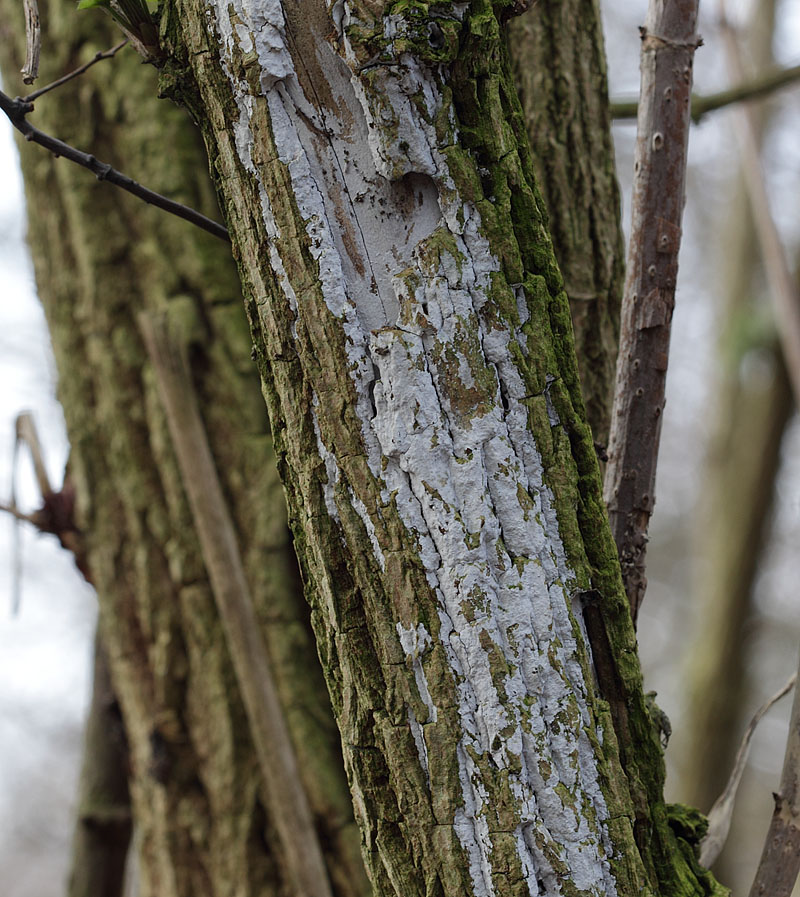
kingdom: Fungi
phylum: Basidiomycota
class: Agaricomycetes
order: Corticiales
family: Corticiaceae
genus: Lyomyces
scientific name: Lyomyces sambuci
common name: almindelig hyldehinde
